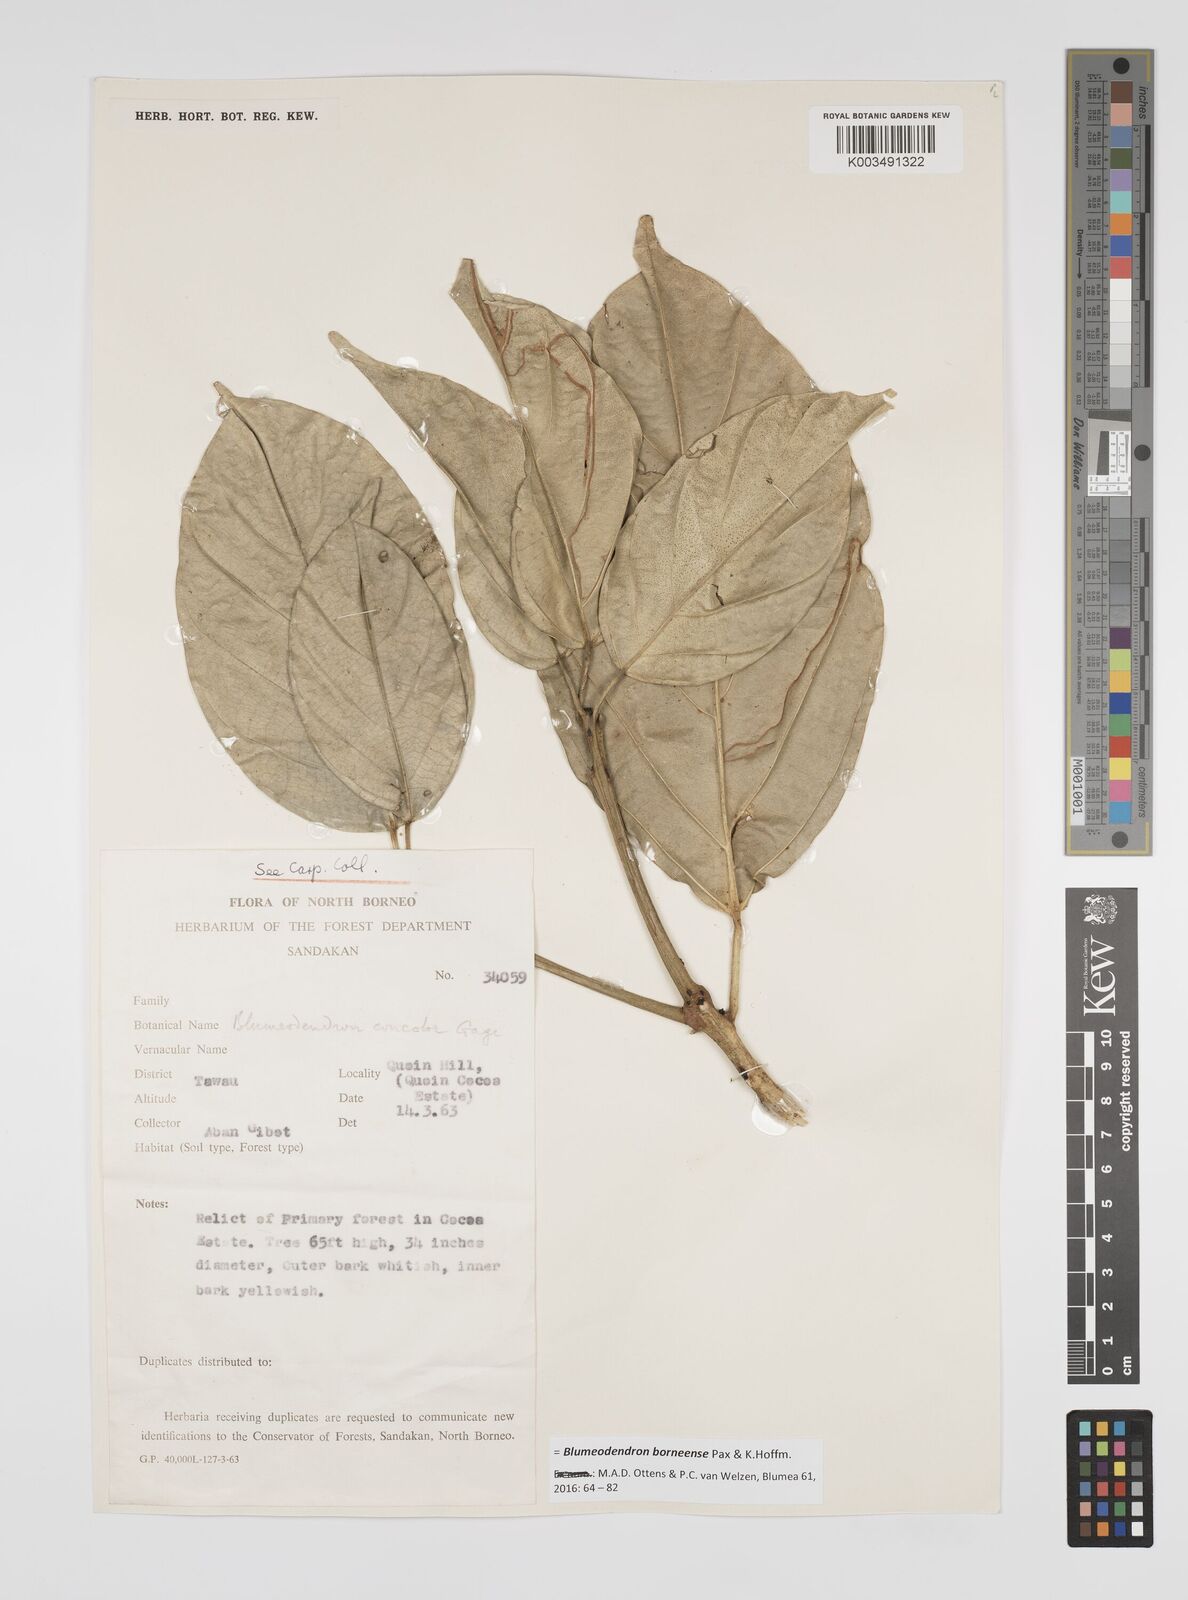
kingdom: Plantae
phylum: Tracheophyta
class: Magnoliopsida
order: Malpighiales
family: Euphorbiaceae
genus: Blumeodendron
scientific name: Blumeodendron borneense
